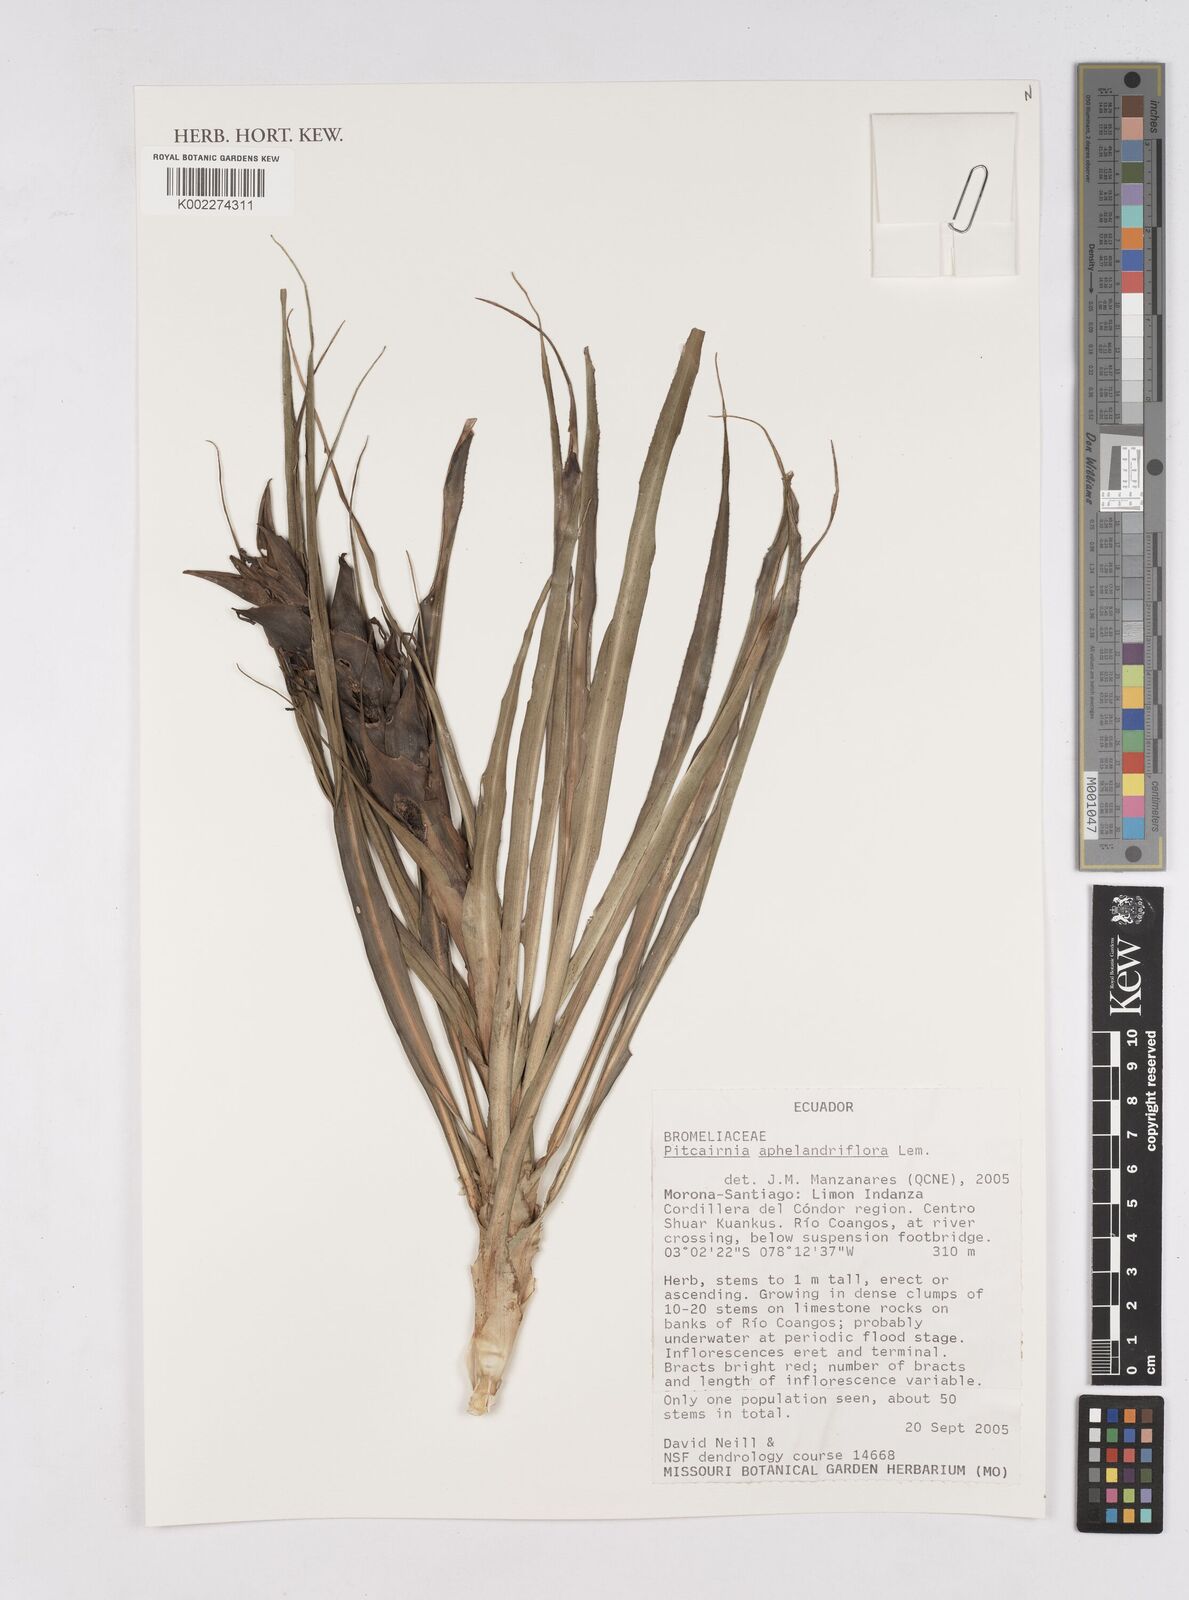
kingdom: Plantae
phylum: Tracheophyta
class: Liliopsida
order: Poales
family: Bromeliaceae
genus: Pitcairnia
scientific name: Pitcairnia aphelandriflora
